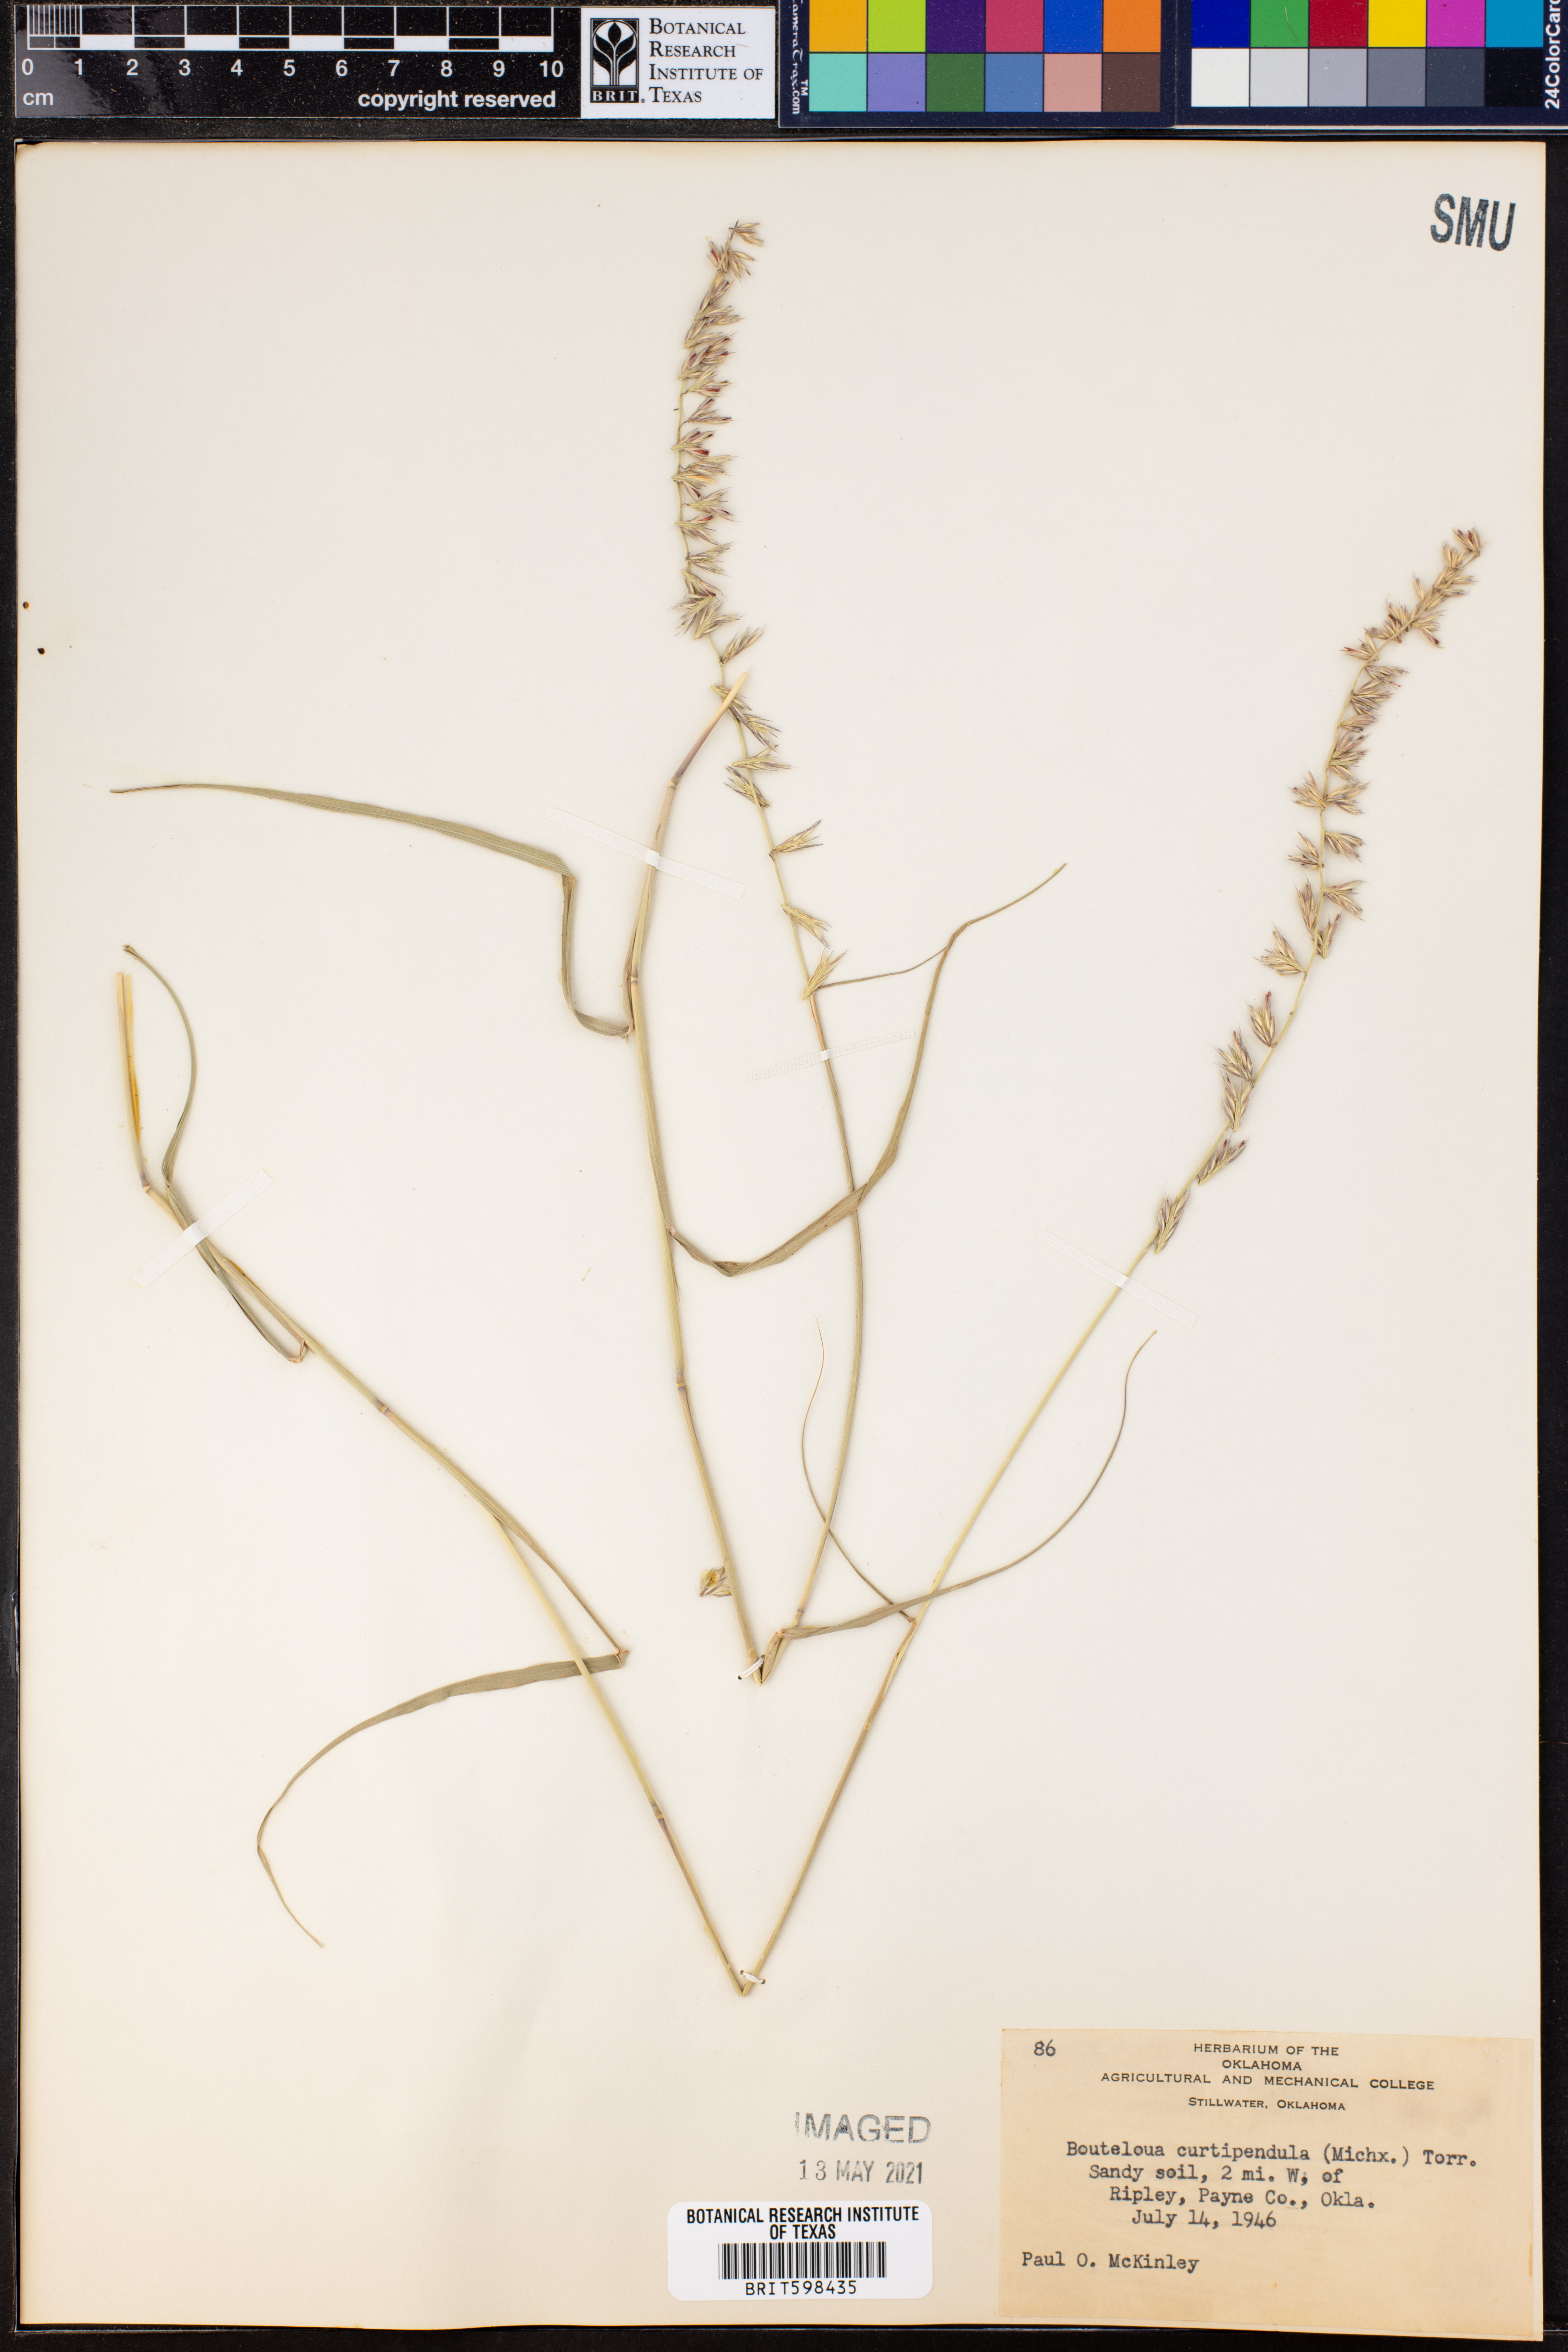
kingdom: Plantae
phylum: Tracheophyta
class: Liliopsida
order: Poales
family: Poaceae
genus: Bouteloua
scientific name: Bouteloua curtipendula
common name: Side-oats grama
